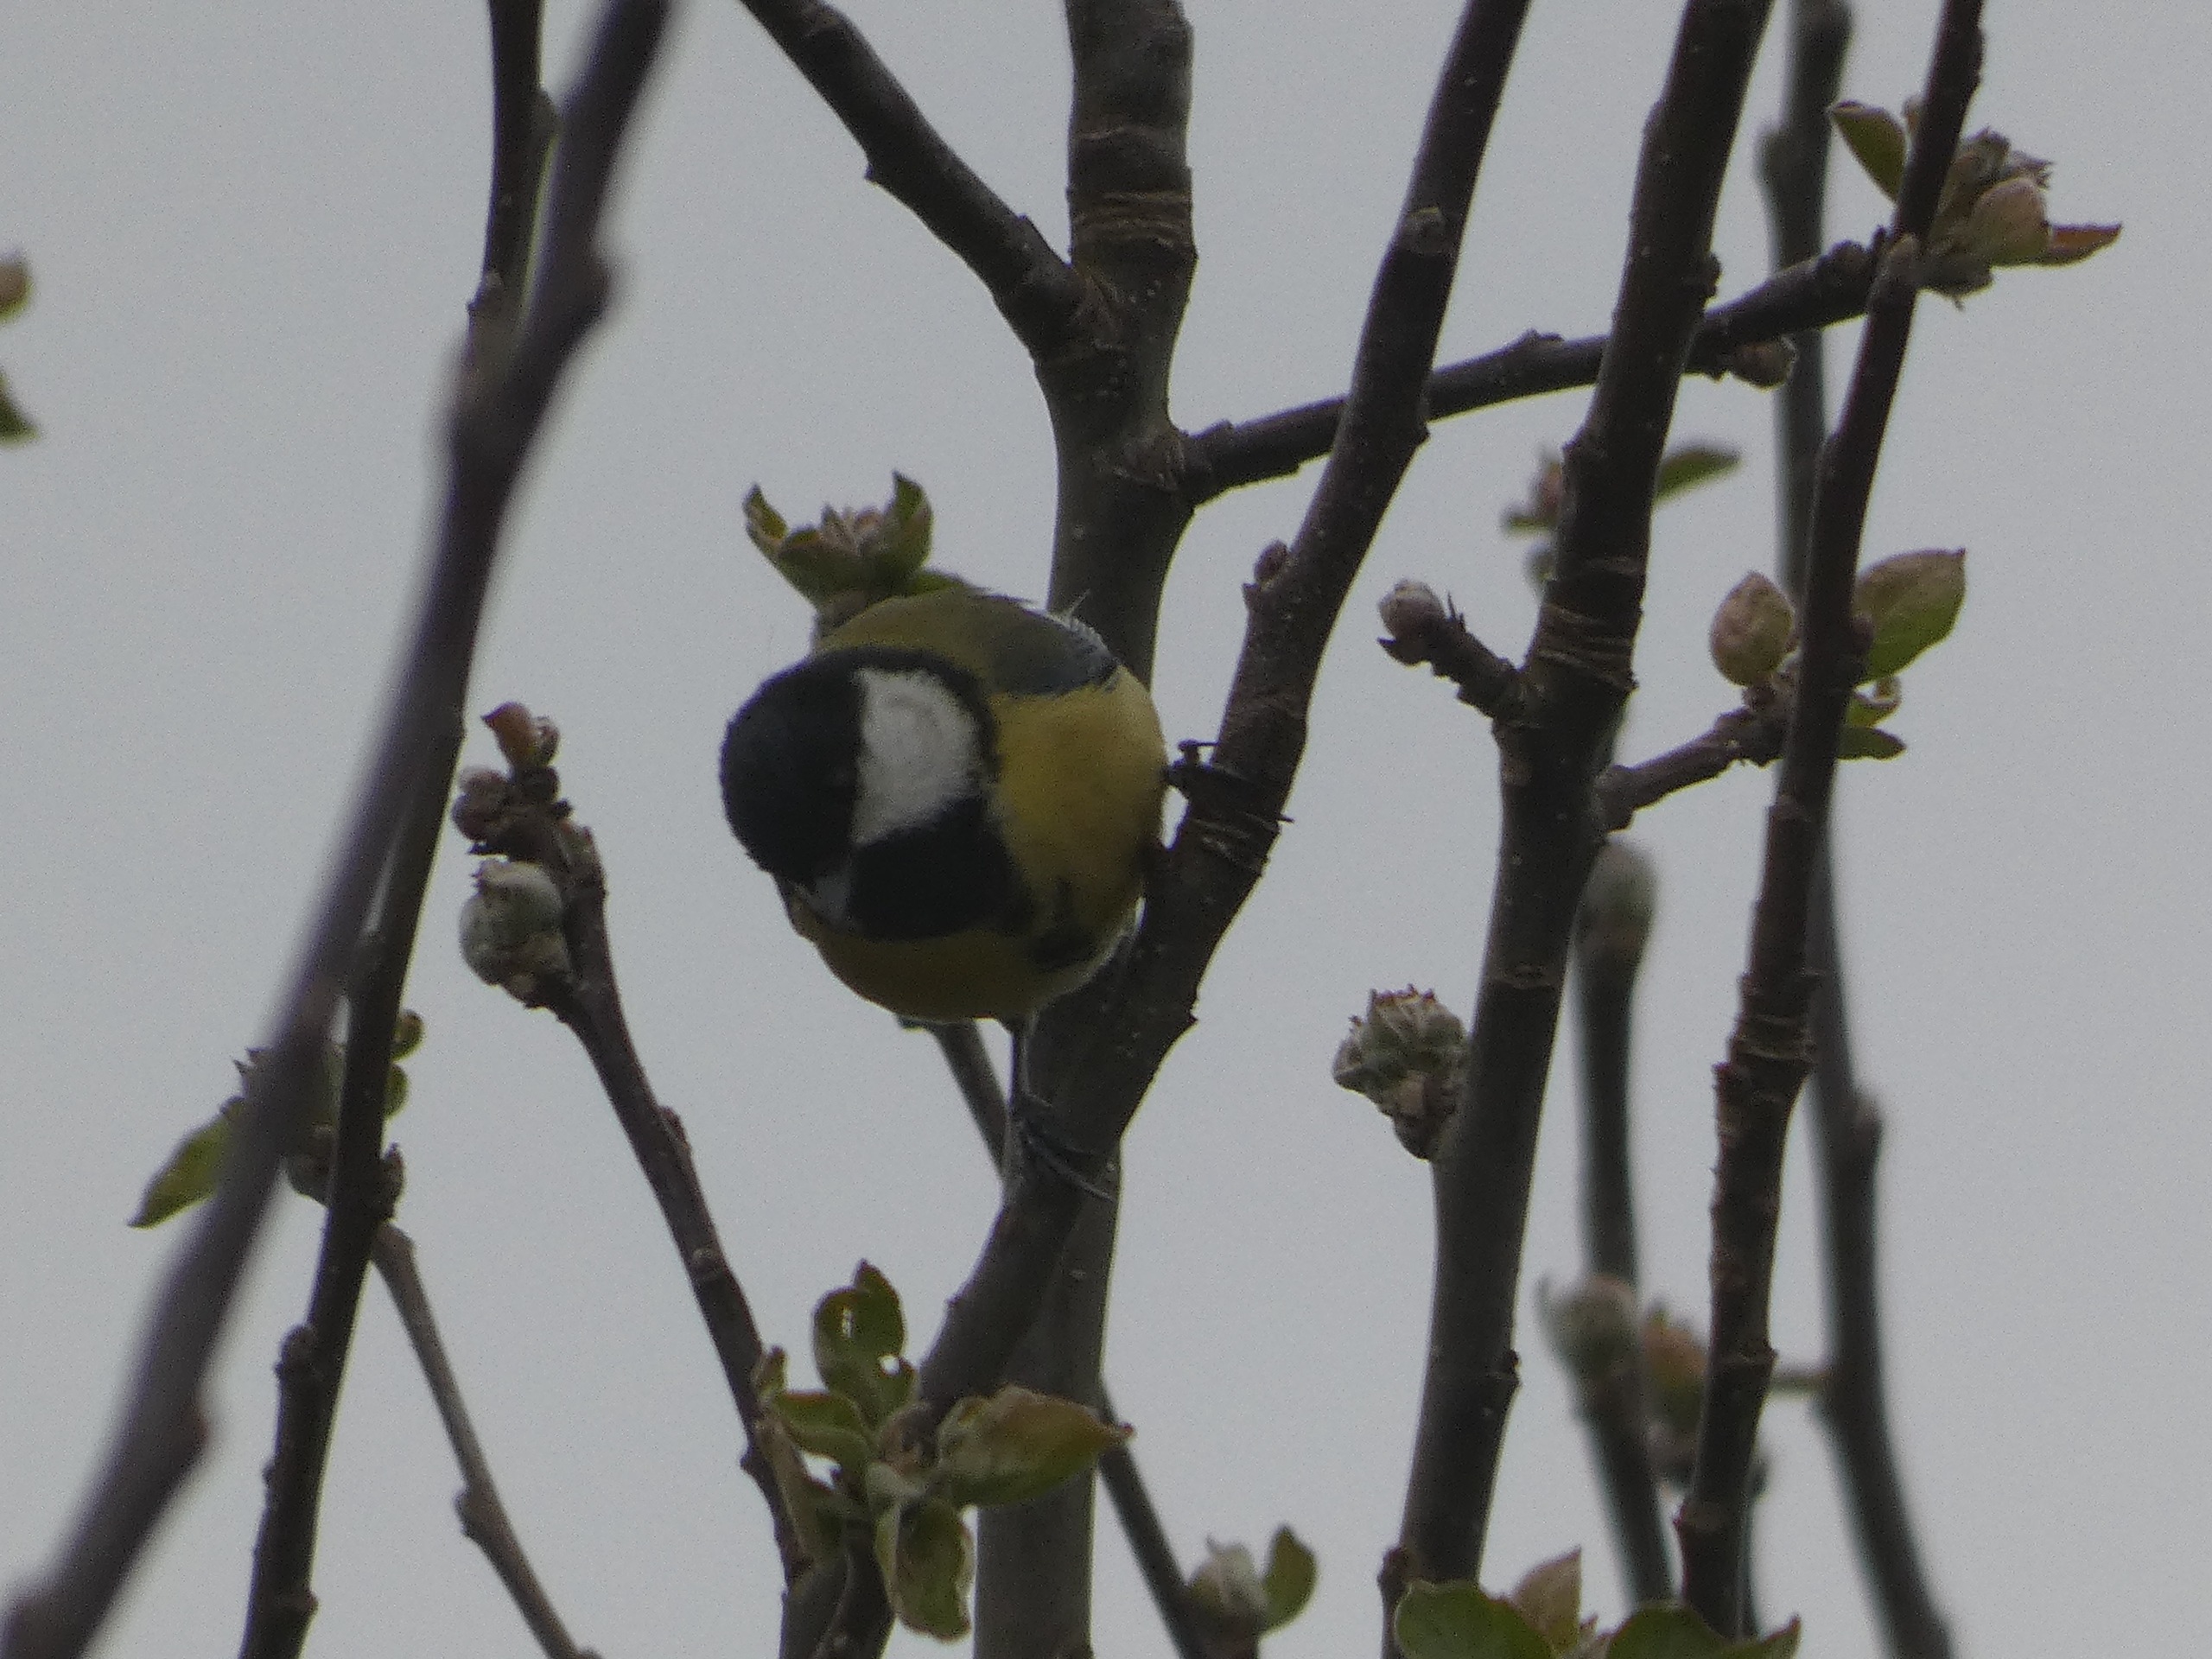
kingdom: Animalia
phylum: Chordata
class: Aves
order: Passeriformes
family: Paridae
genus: Parus
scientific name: Parus major
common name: Musvit
